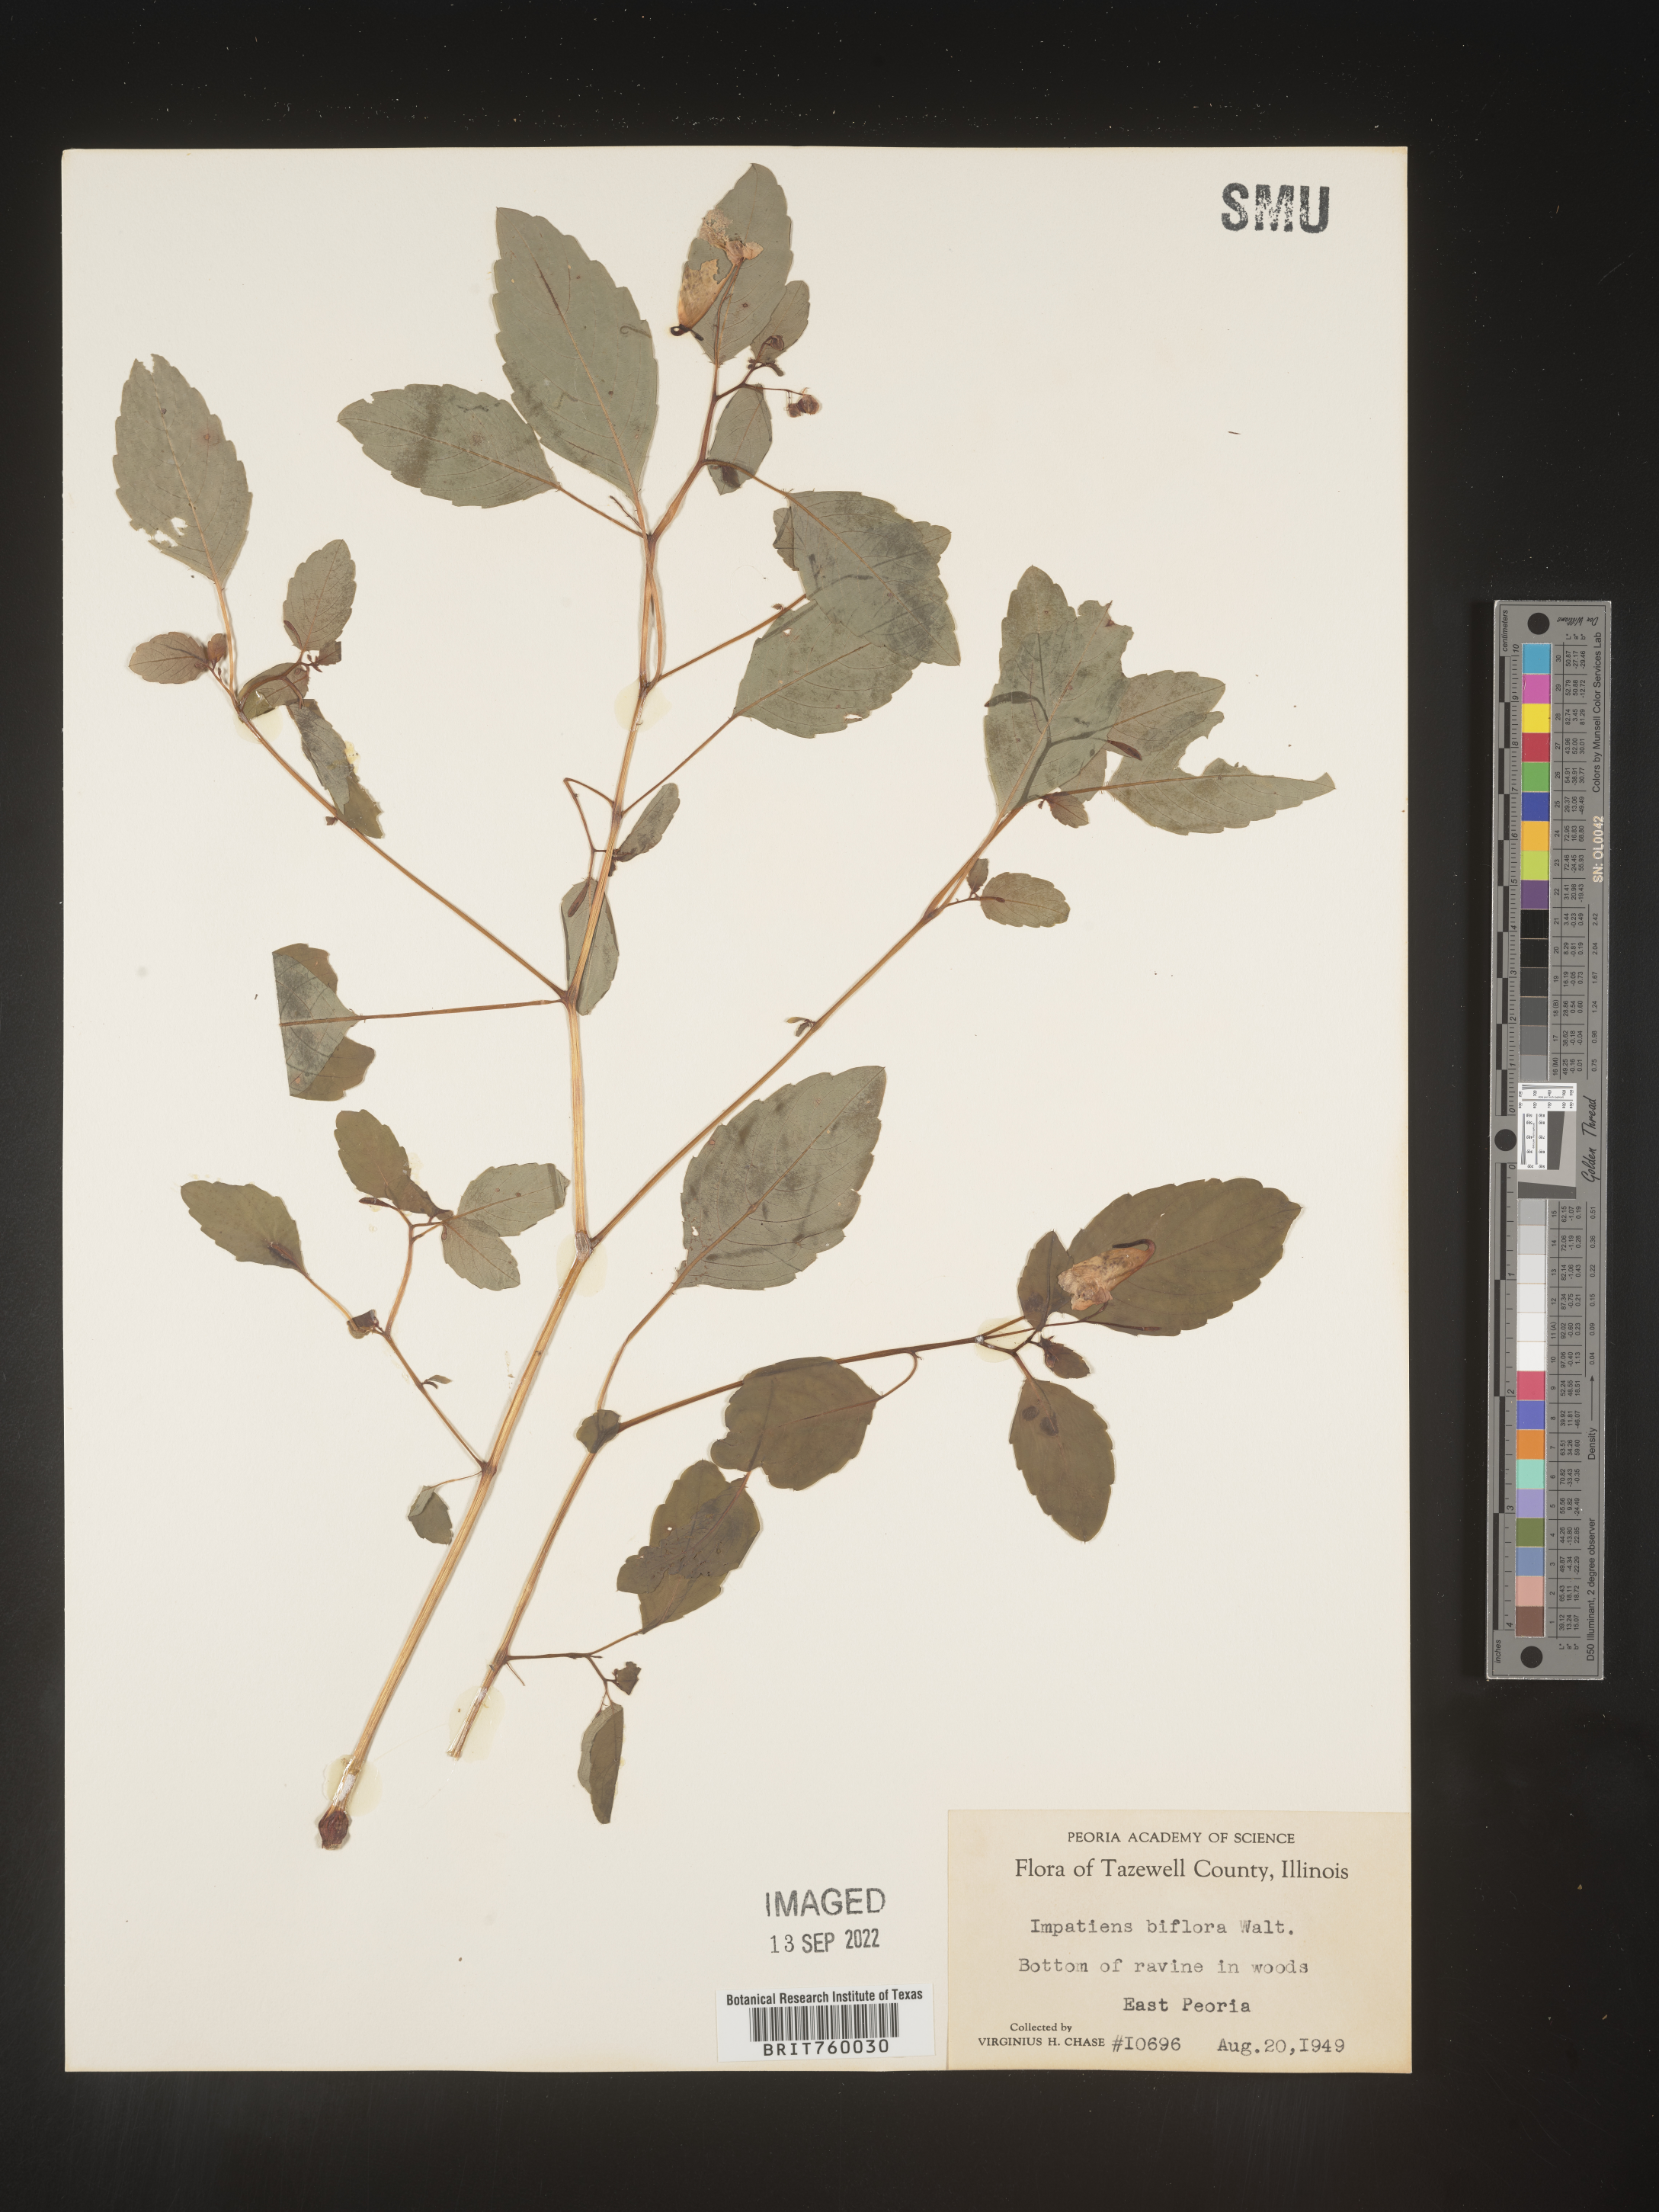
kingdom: Plantae
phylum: Tracheophyta
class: Magnoliopsida
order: Ericales
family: Balsaminaceae
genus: Impatiens
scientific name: Impatiens capensis
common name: Orange balsam
